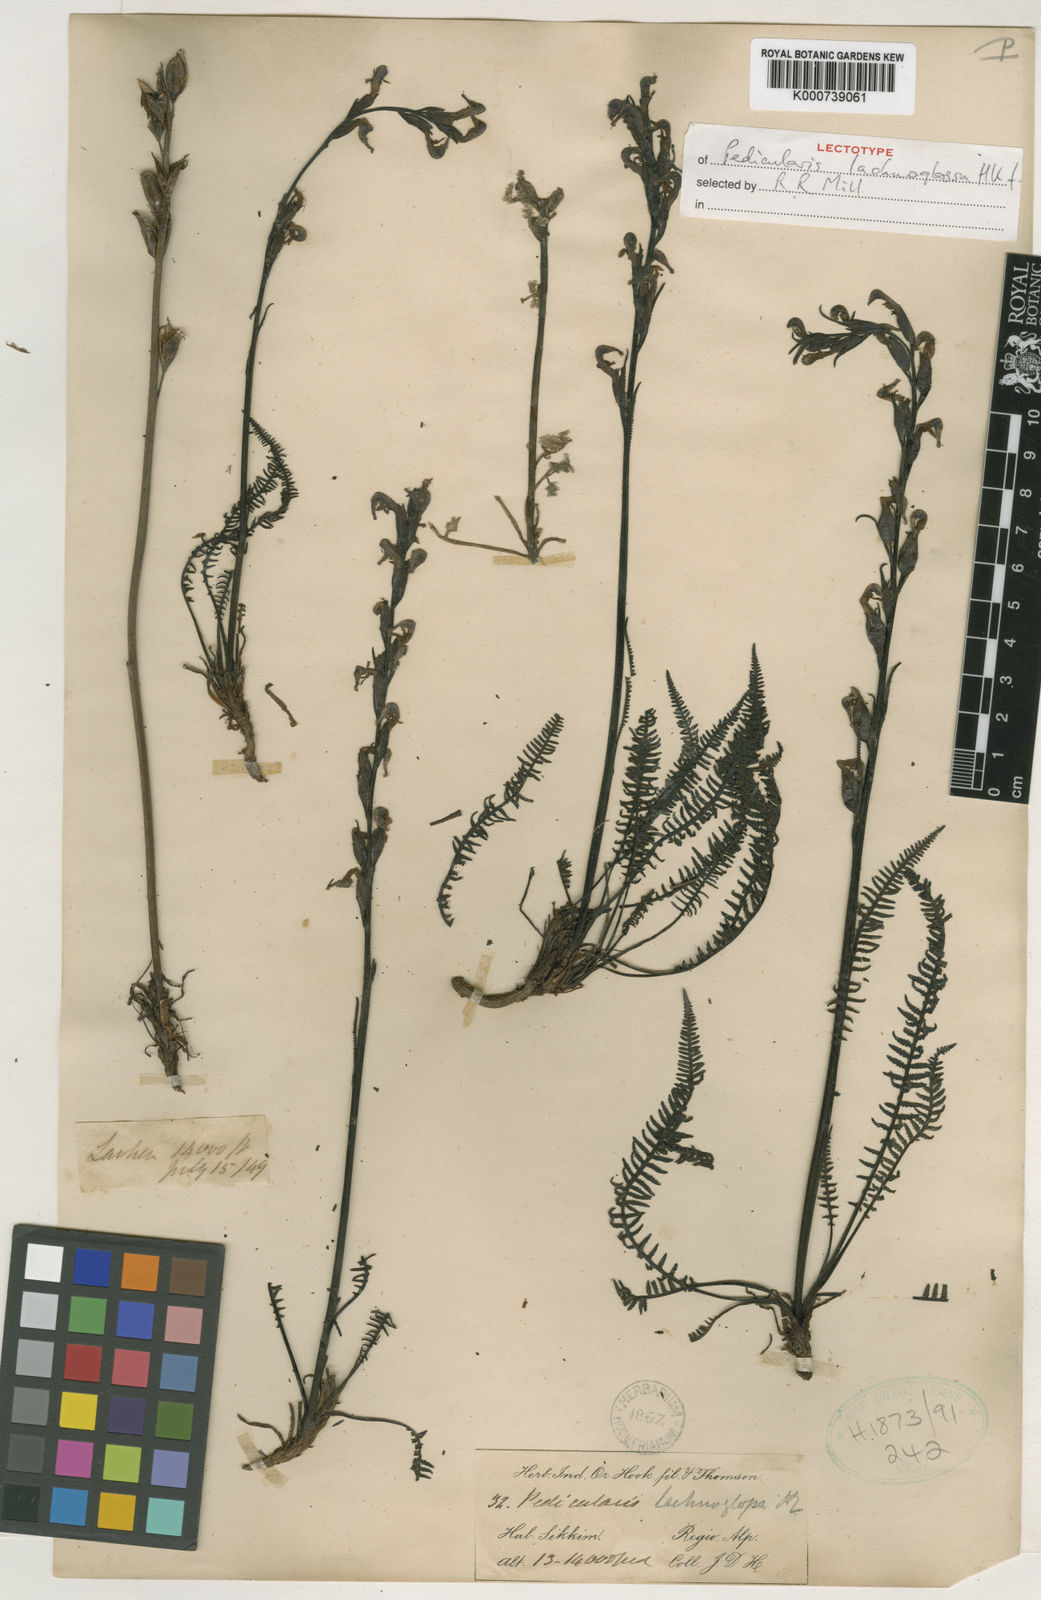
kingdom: Plantae
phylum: Tracheophyta
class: Magnoliopsida
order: Lamiales
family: Orobanchaceae
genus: Pedicularis
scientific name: Pedicularis lachnoglossa
